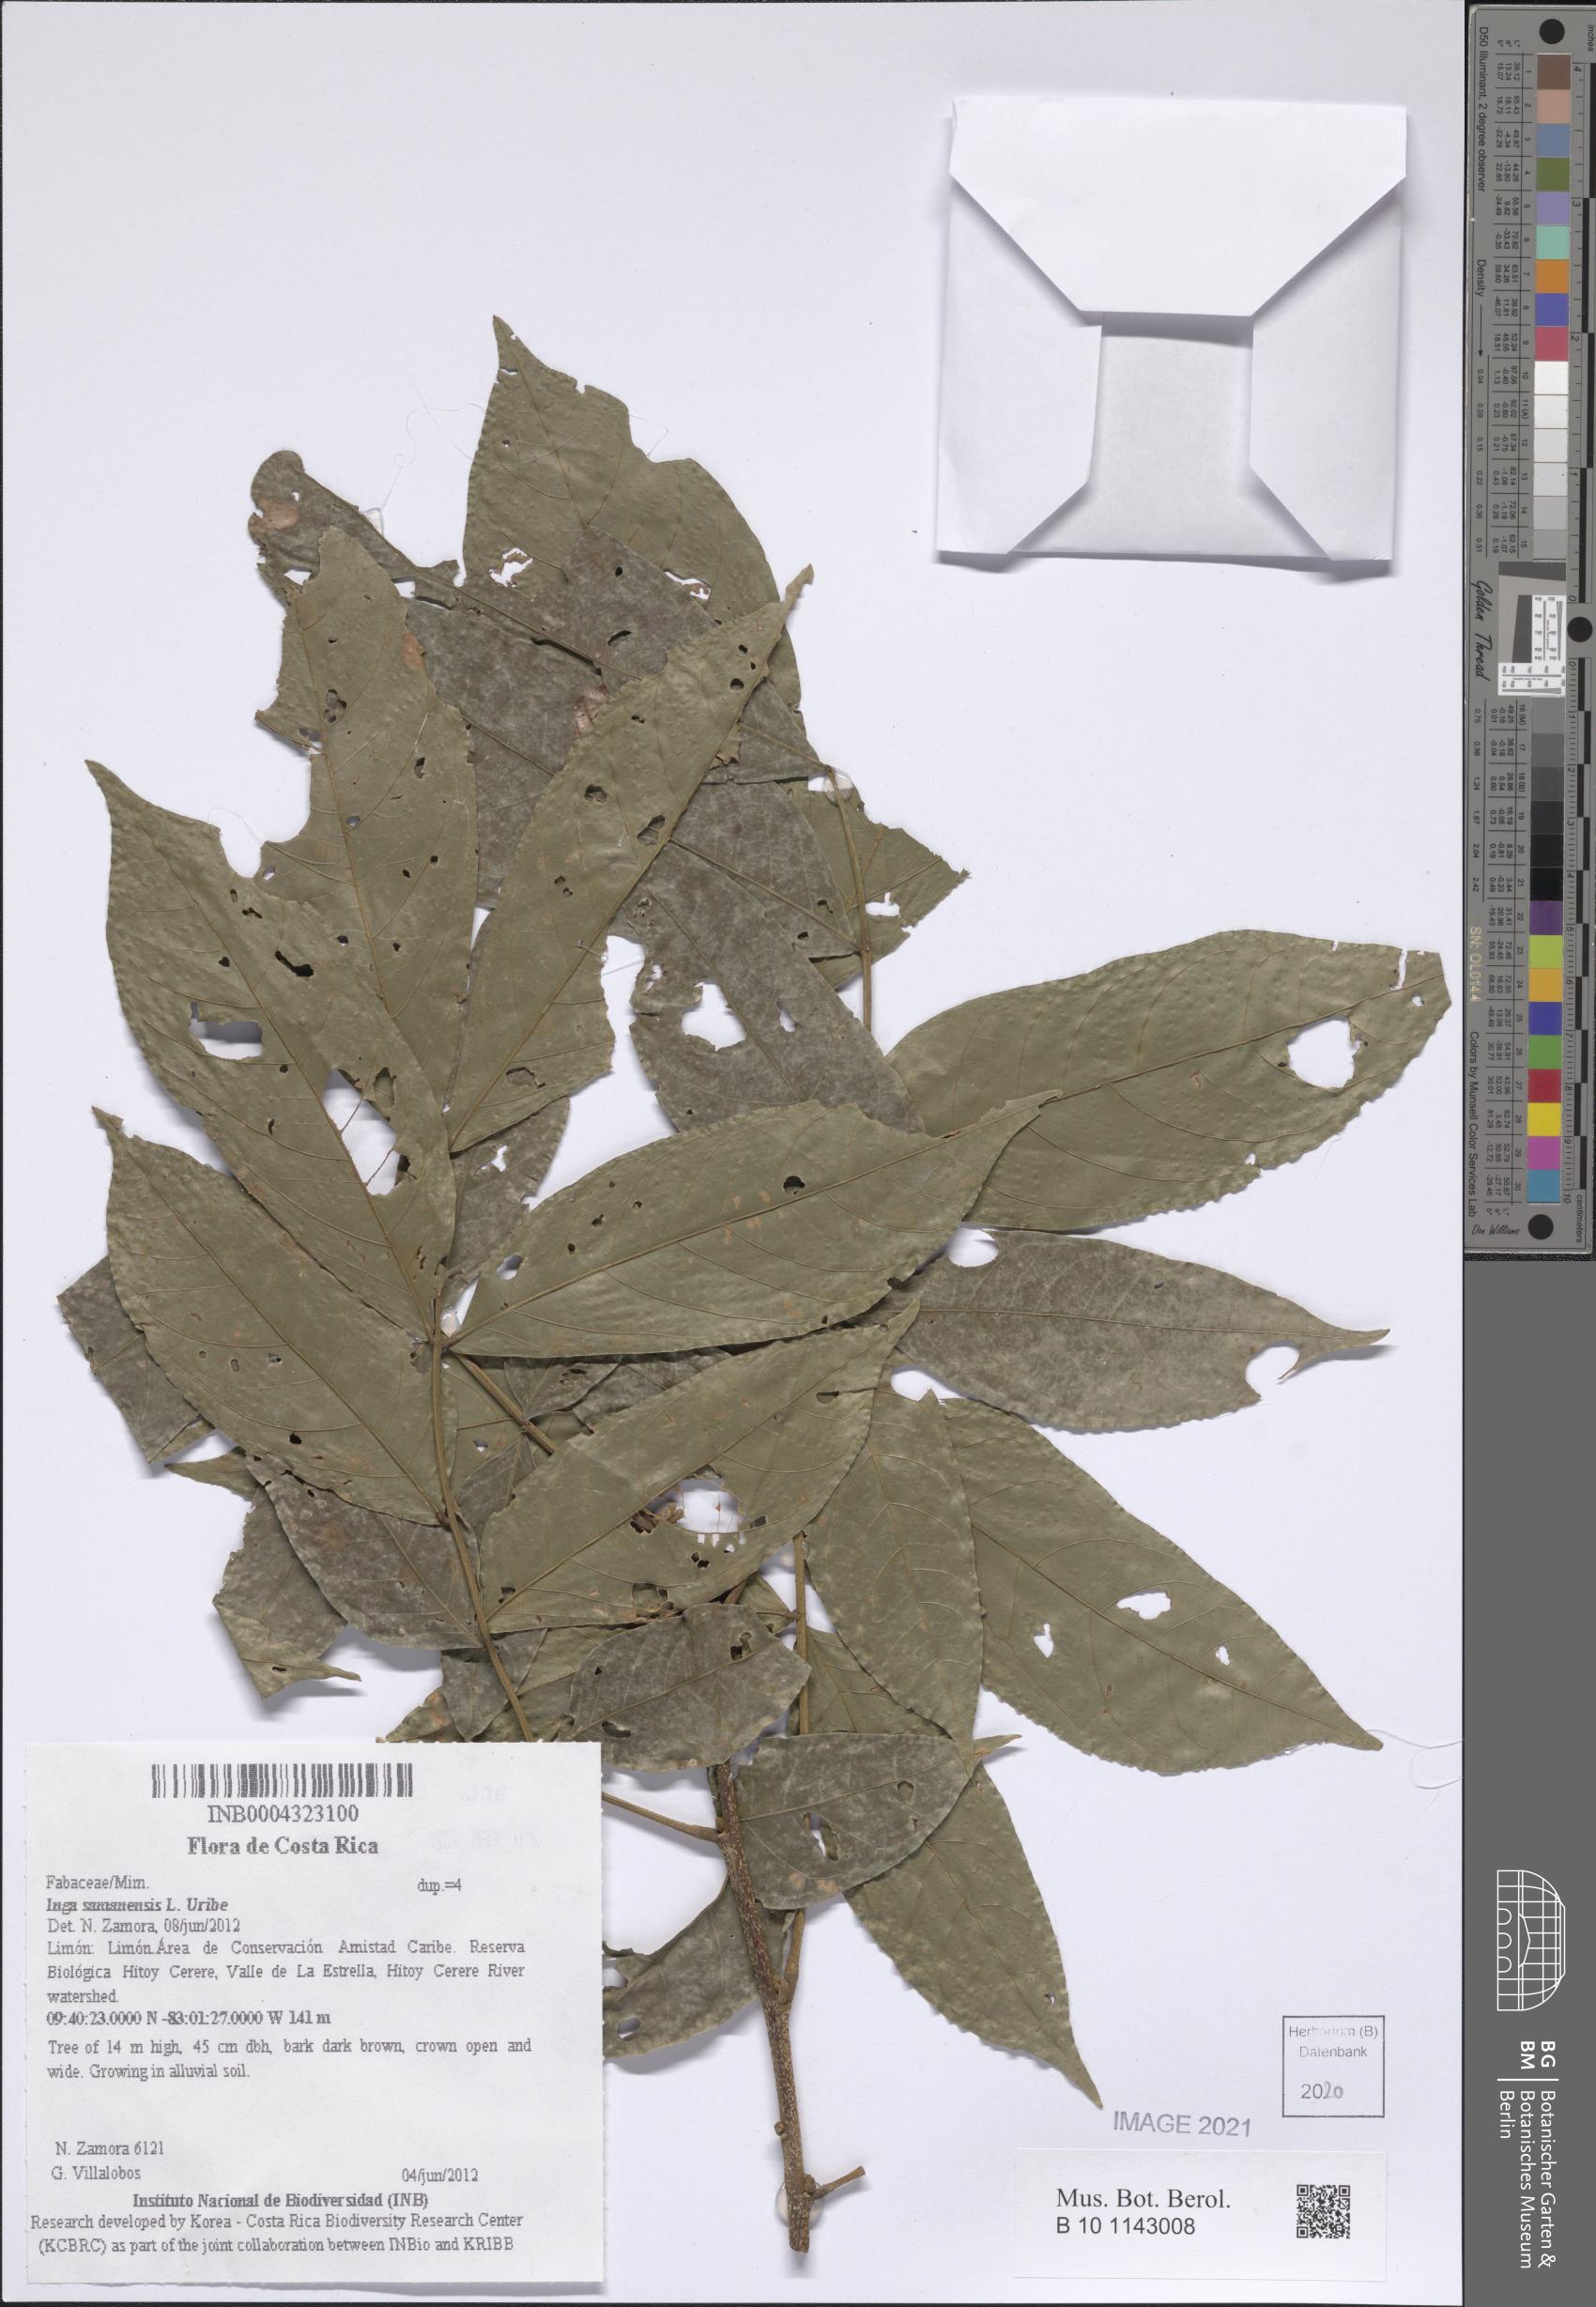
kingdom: Plantae
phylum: Tracheophyta
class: Magnoliopsida
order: Fabales
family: Fabaceae
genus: Inga
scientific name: Inga samanensis
